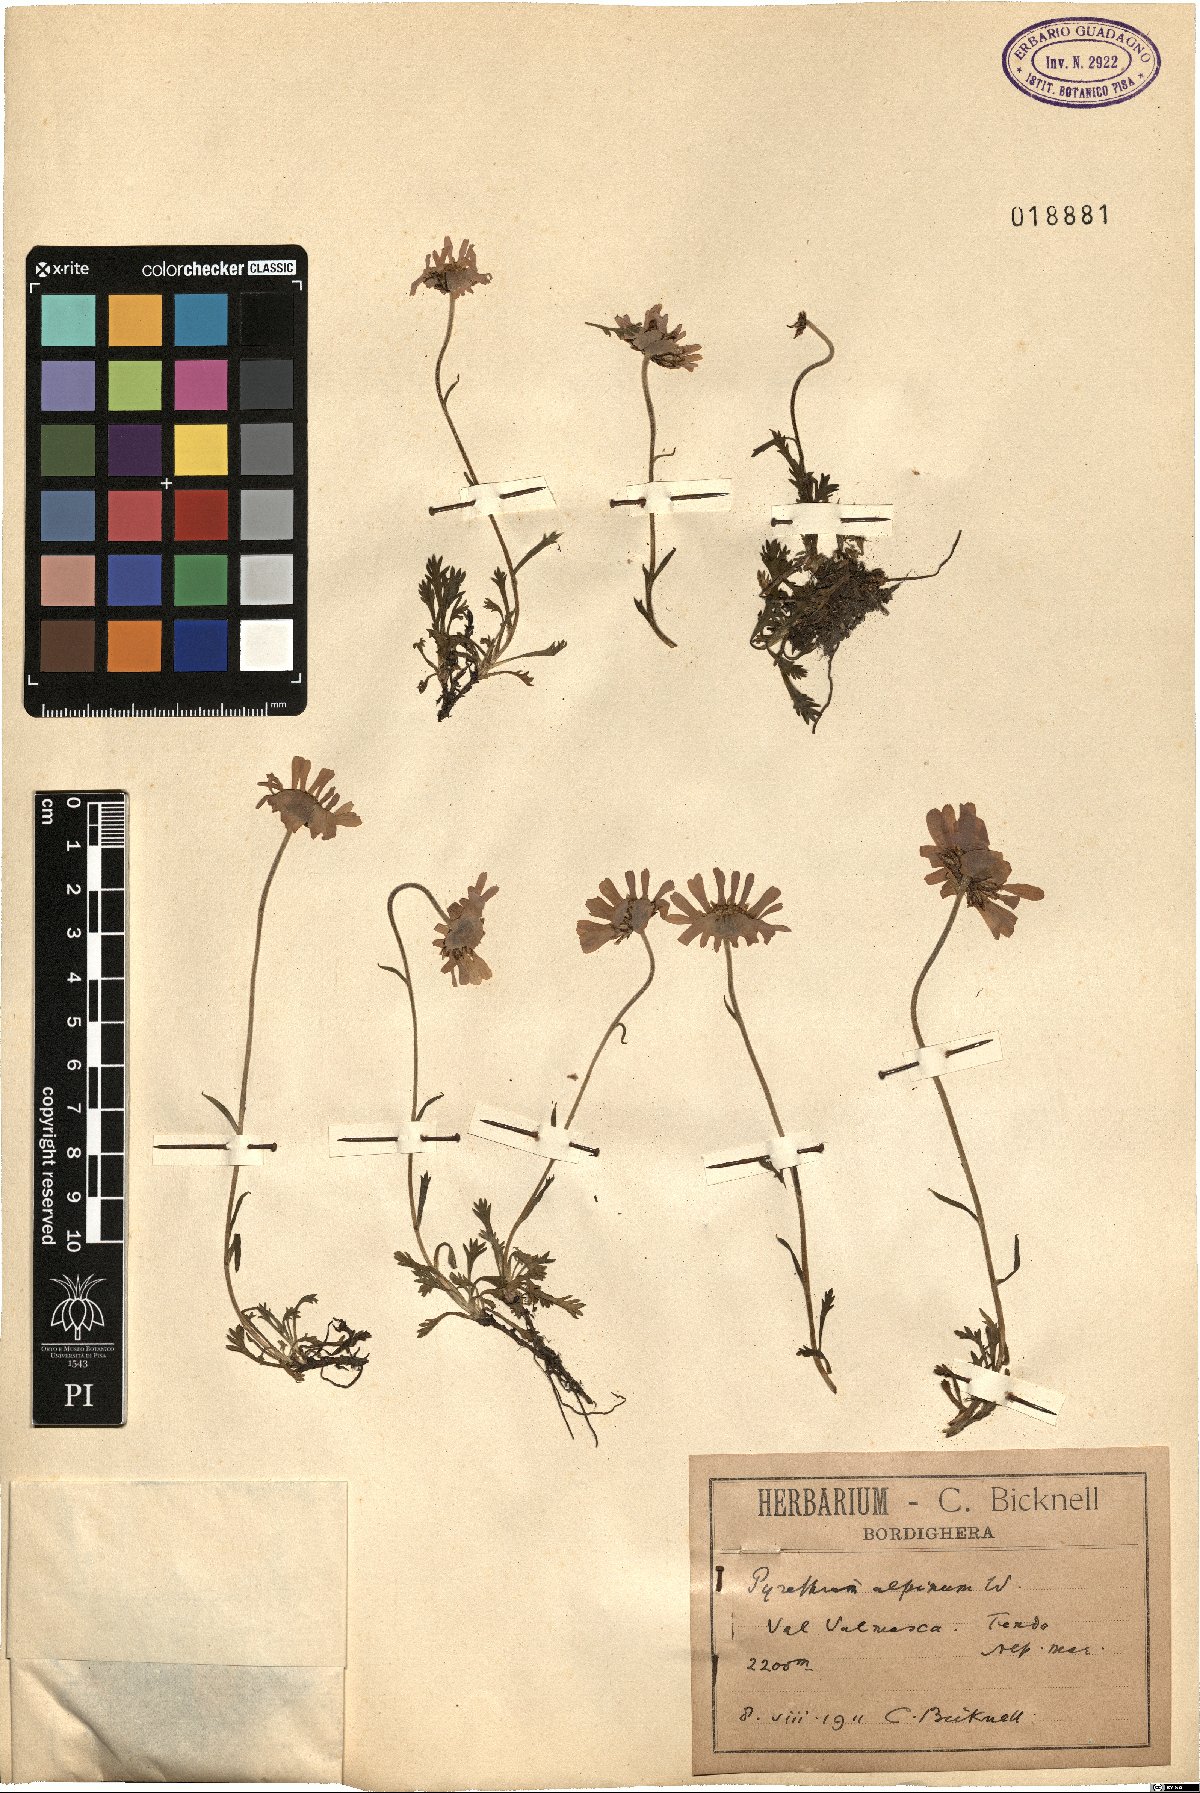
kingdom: Plantae
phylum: Tracheophyta
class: Magnoliopsida
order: Asterales
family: Asteraceae
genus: Leucanthemopsis
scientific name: Leucanthemopsis alpina
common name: Alpine moon daisy
